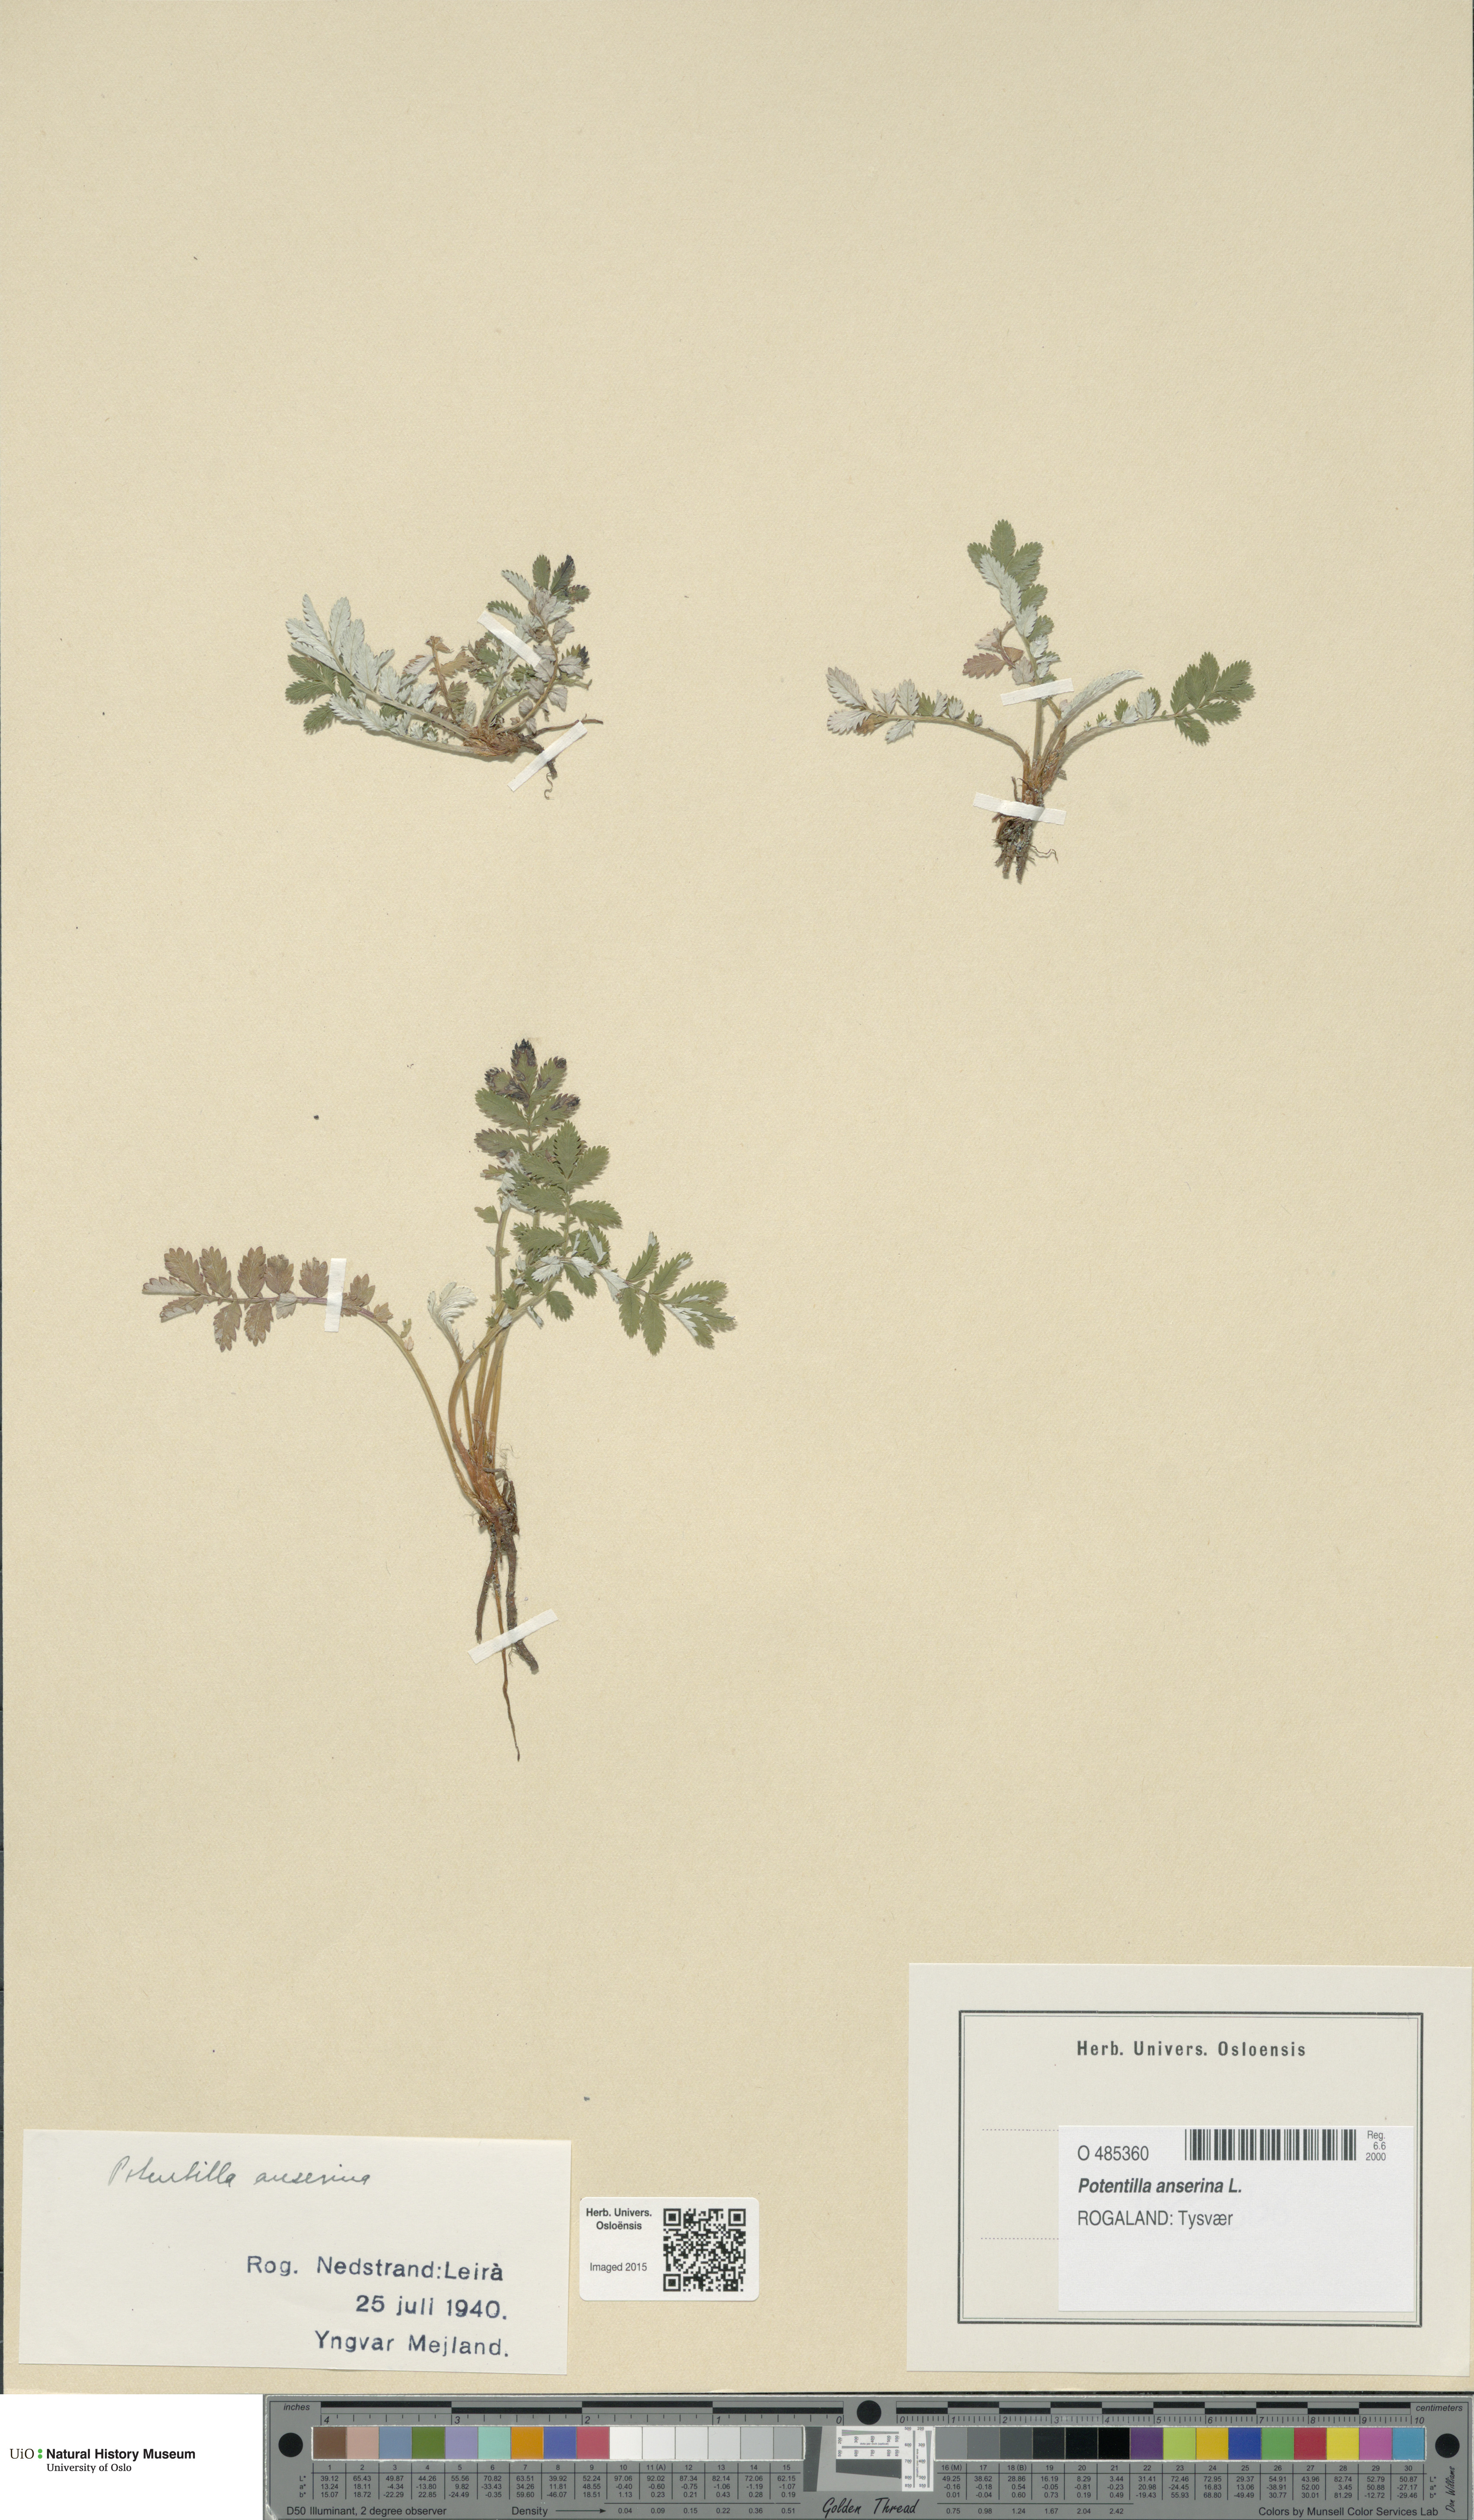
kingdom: Plantae
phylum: Tracheophyta
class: Magnoliopsida
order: Rosales
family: Rosaceae
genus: Argentina
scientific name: Argentina anserina
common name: Common silverweed
